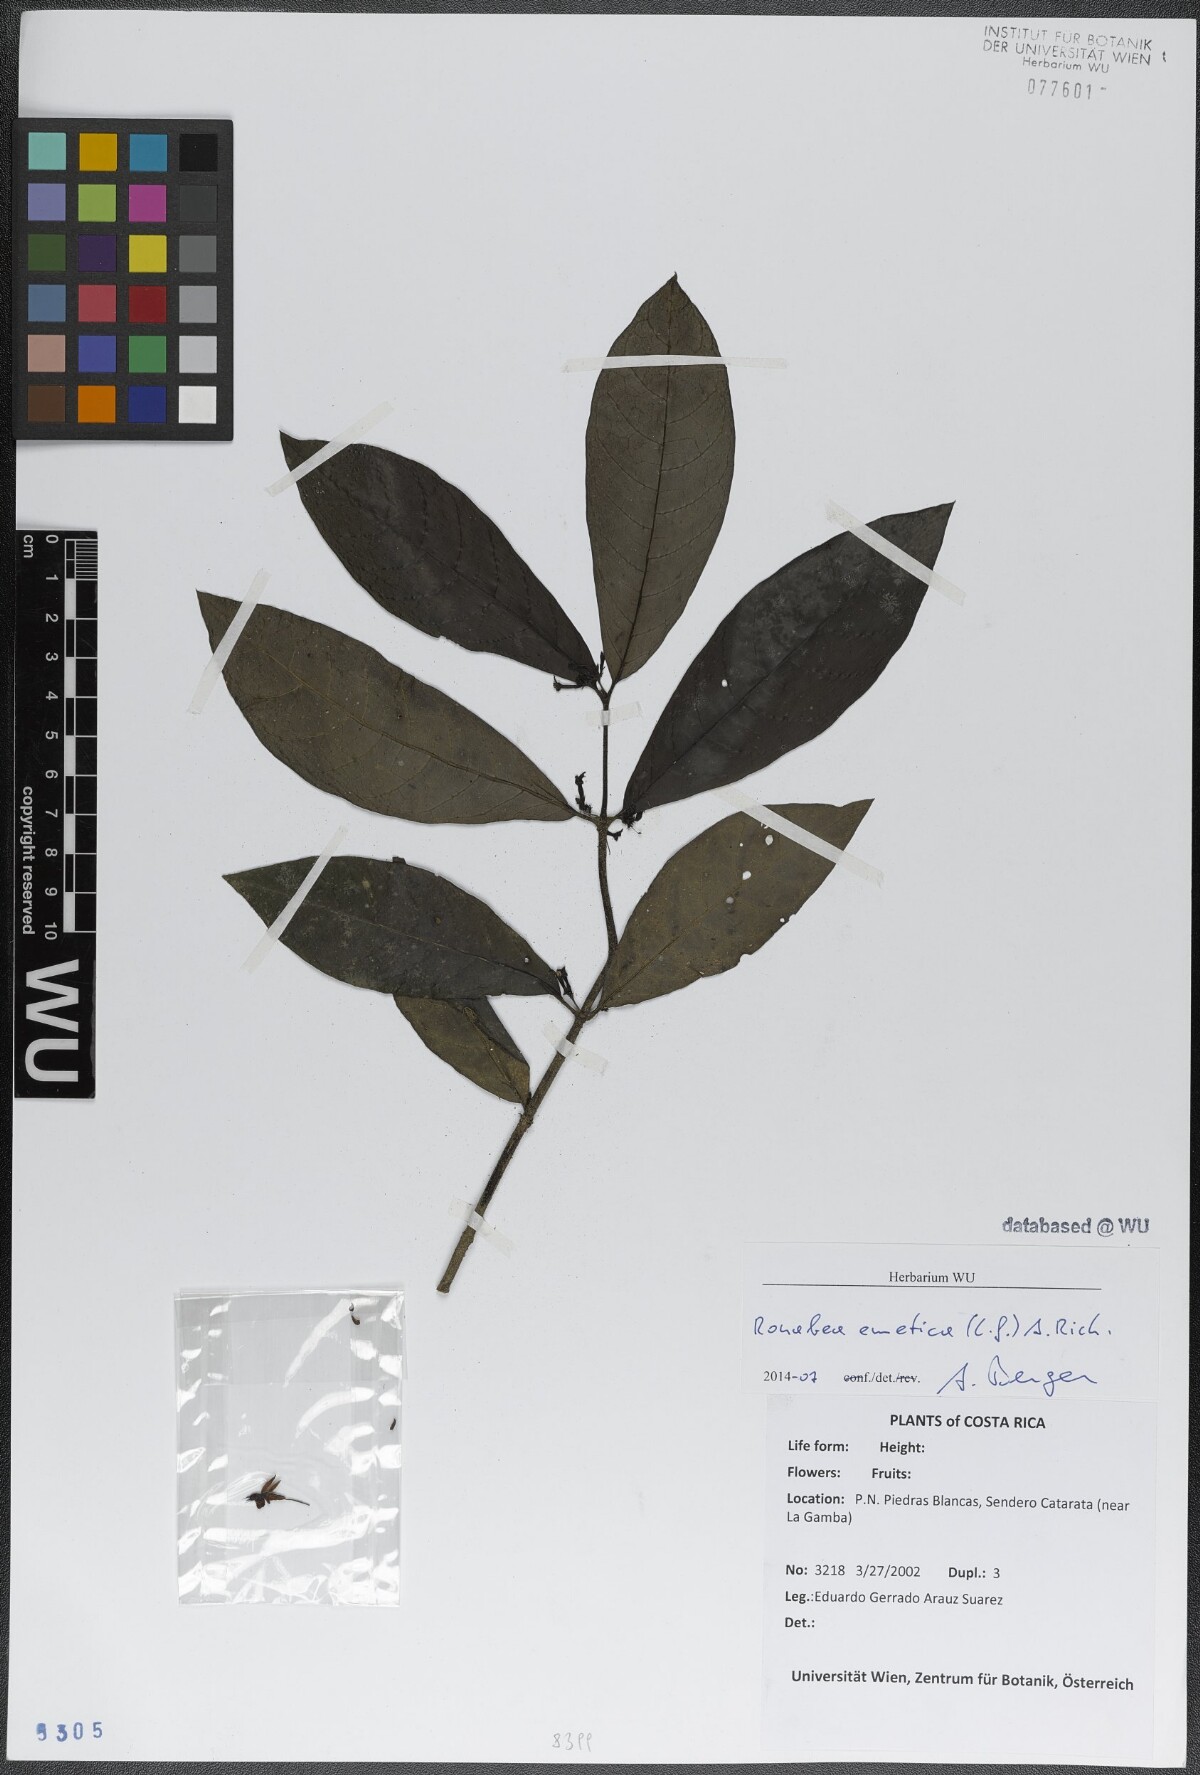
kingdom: Plantae
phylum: Tracheophyta
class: Magnoliopsida
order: Gentianales
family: Rubiaceae
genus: Ronabea
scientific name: Ronabea emetica
